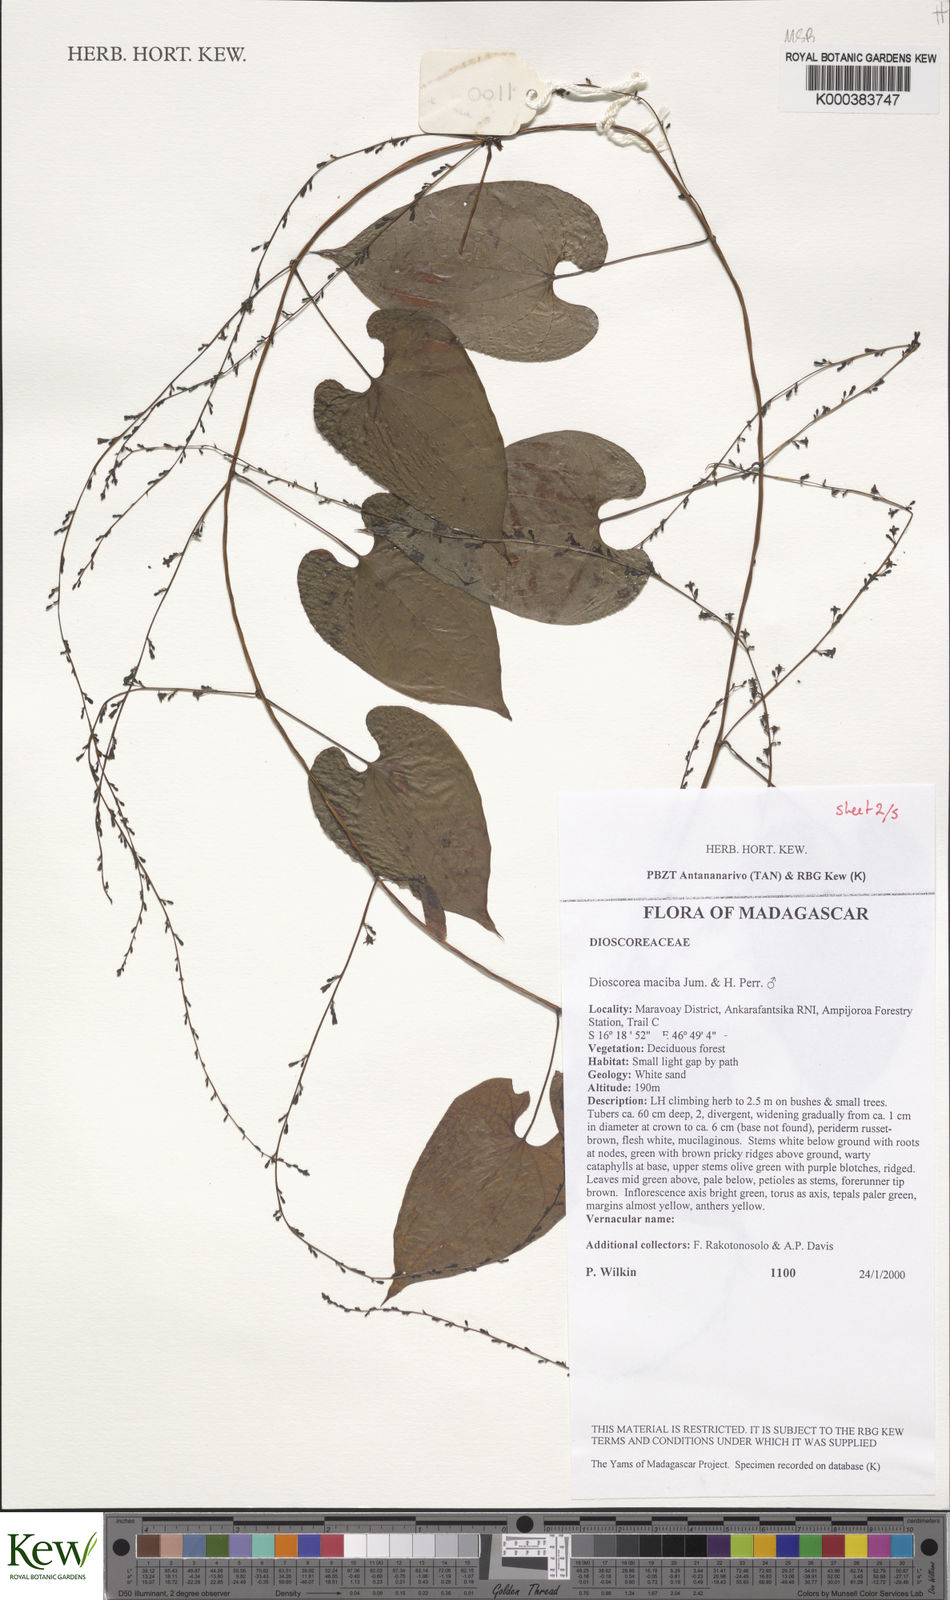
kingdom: Plantae
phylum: Tracheophyta
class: Liliopsida
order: Dioscoreales
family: Dioscoreaceae
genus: Dioscorea
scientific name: Dioscorea
